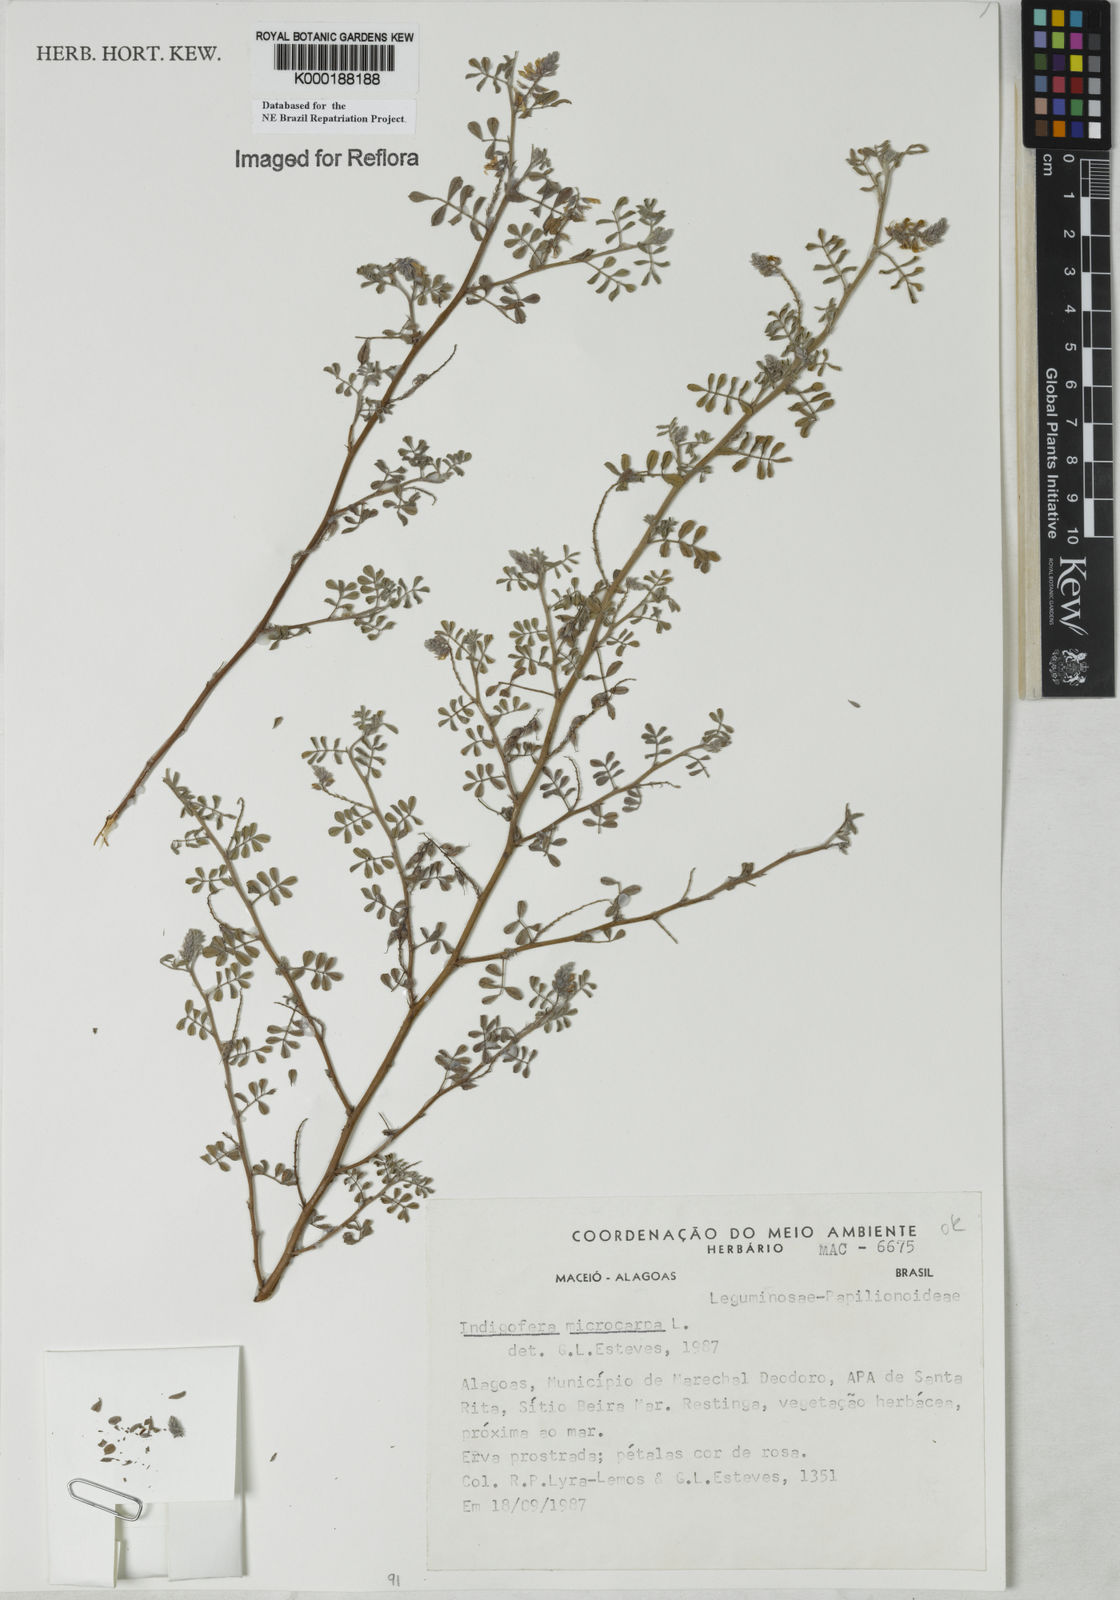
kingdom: Plantae
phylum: Tracheophyta
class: Magnoliopsida
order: Fabales
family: Fabaceae
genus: Indigofera
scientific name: Indigofera microcarpa
